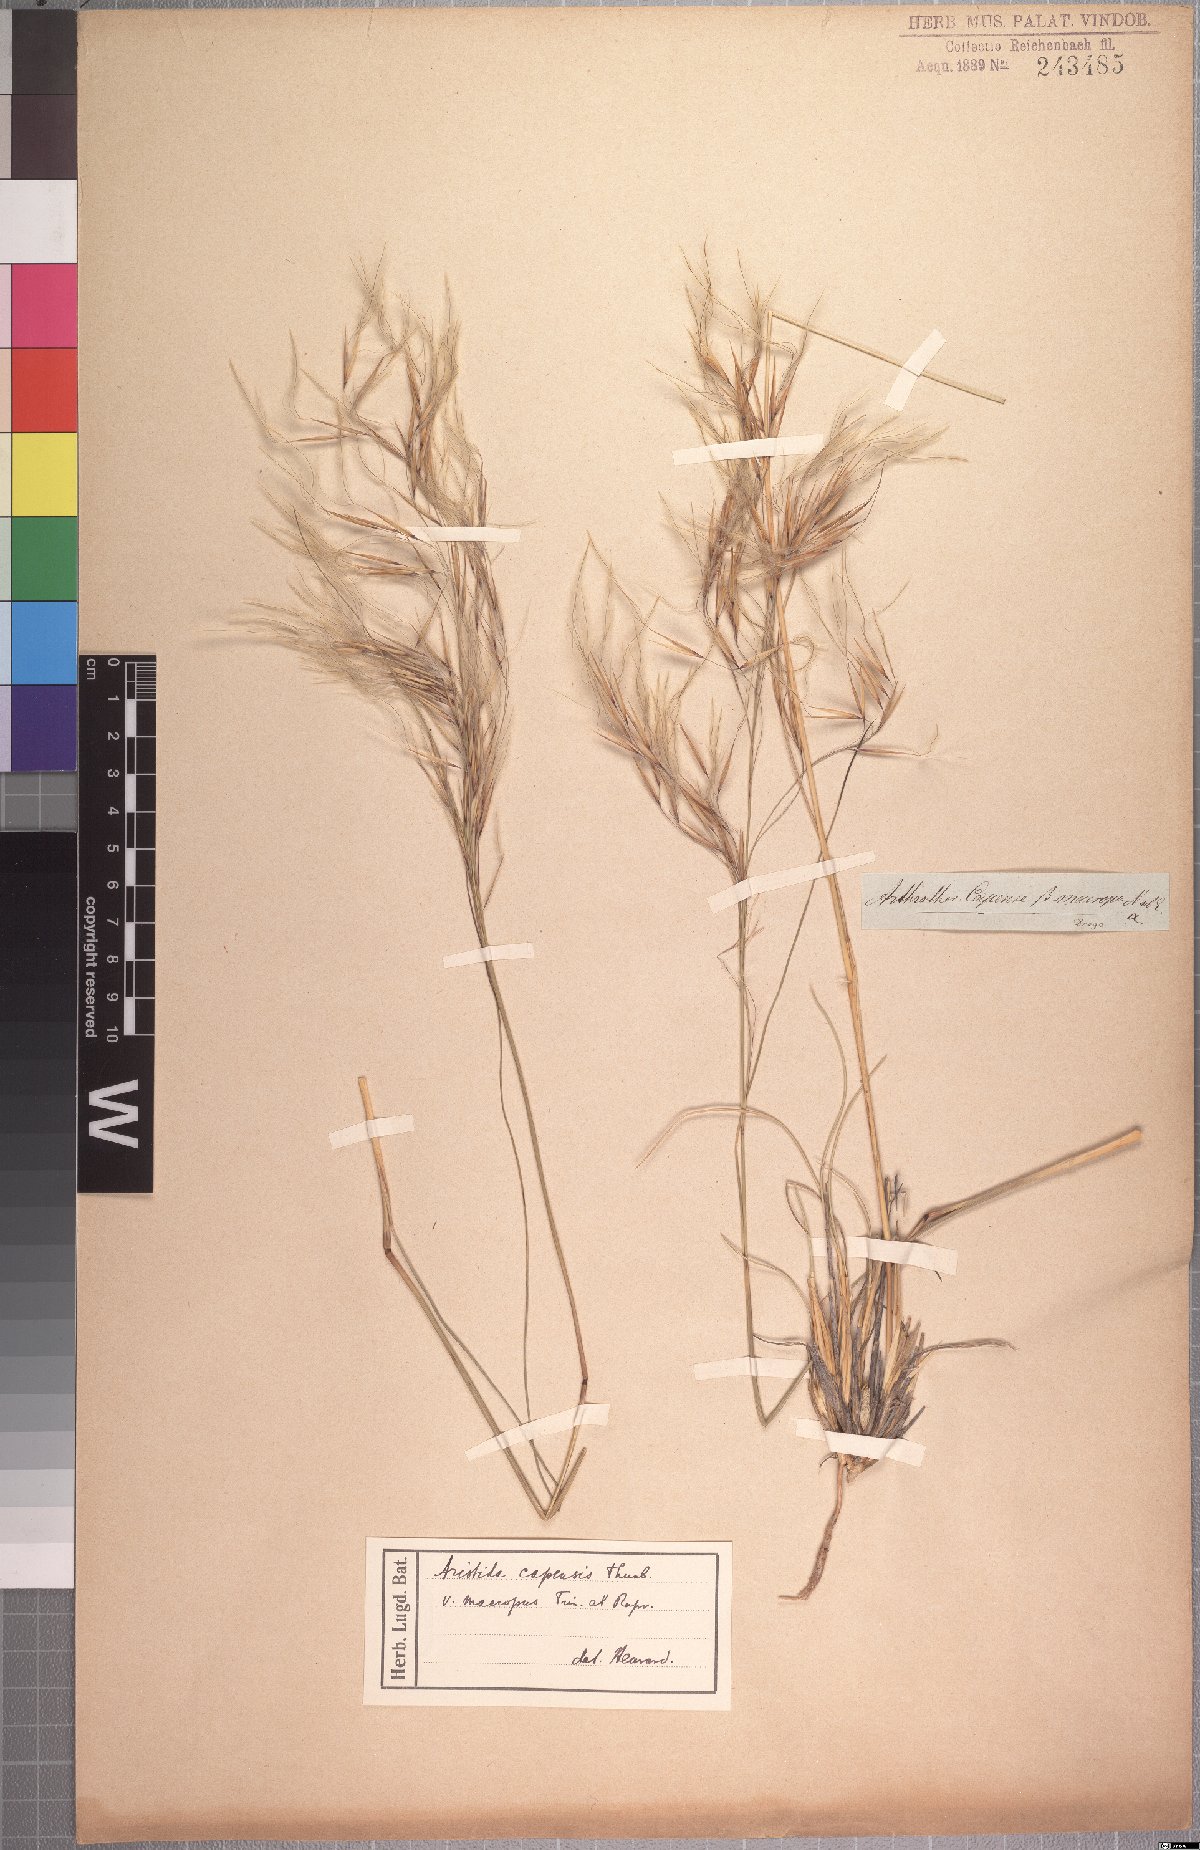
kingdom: Plantae
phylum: Tracheophyta
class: Liliopsida
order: Poales
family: Poaceae
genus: Stipagrostis
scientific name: Stipagrostis zeyheri
